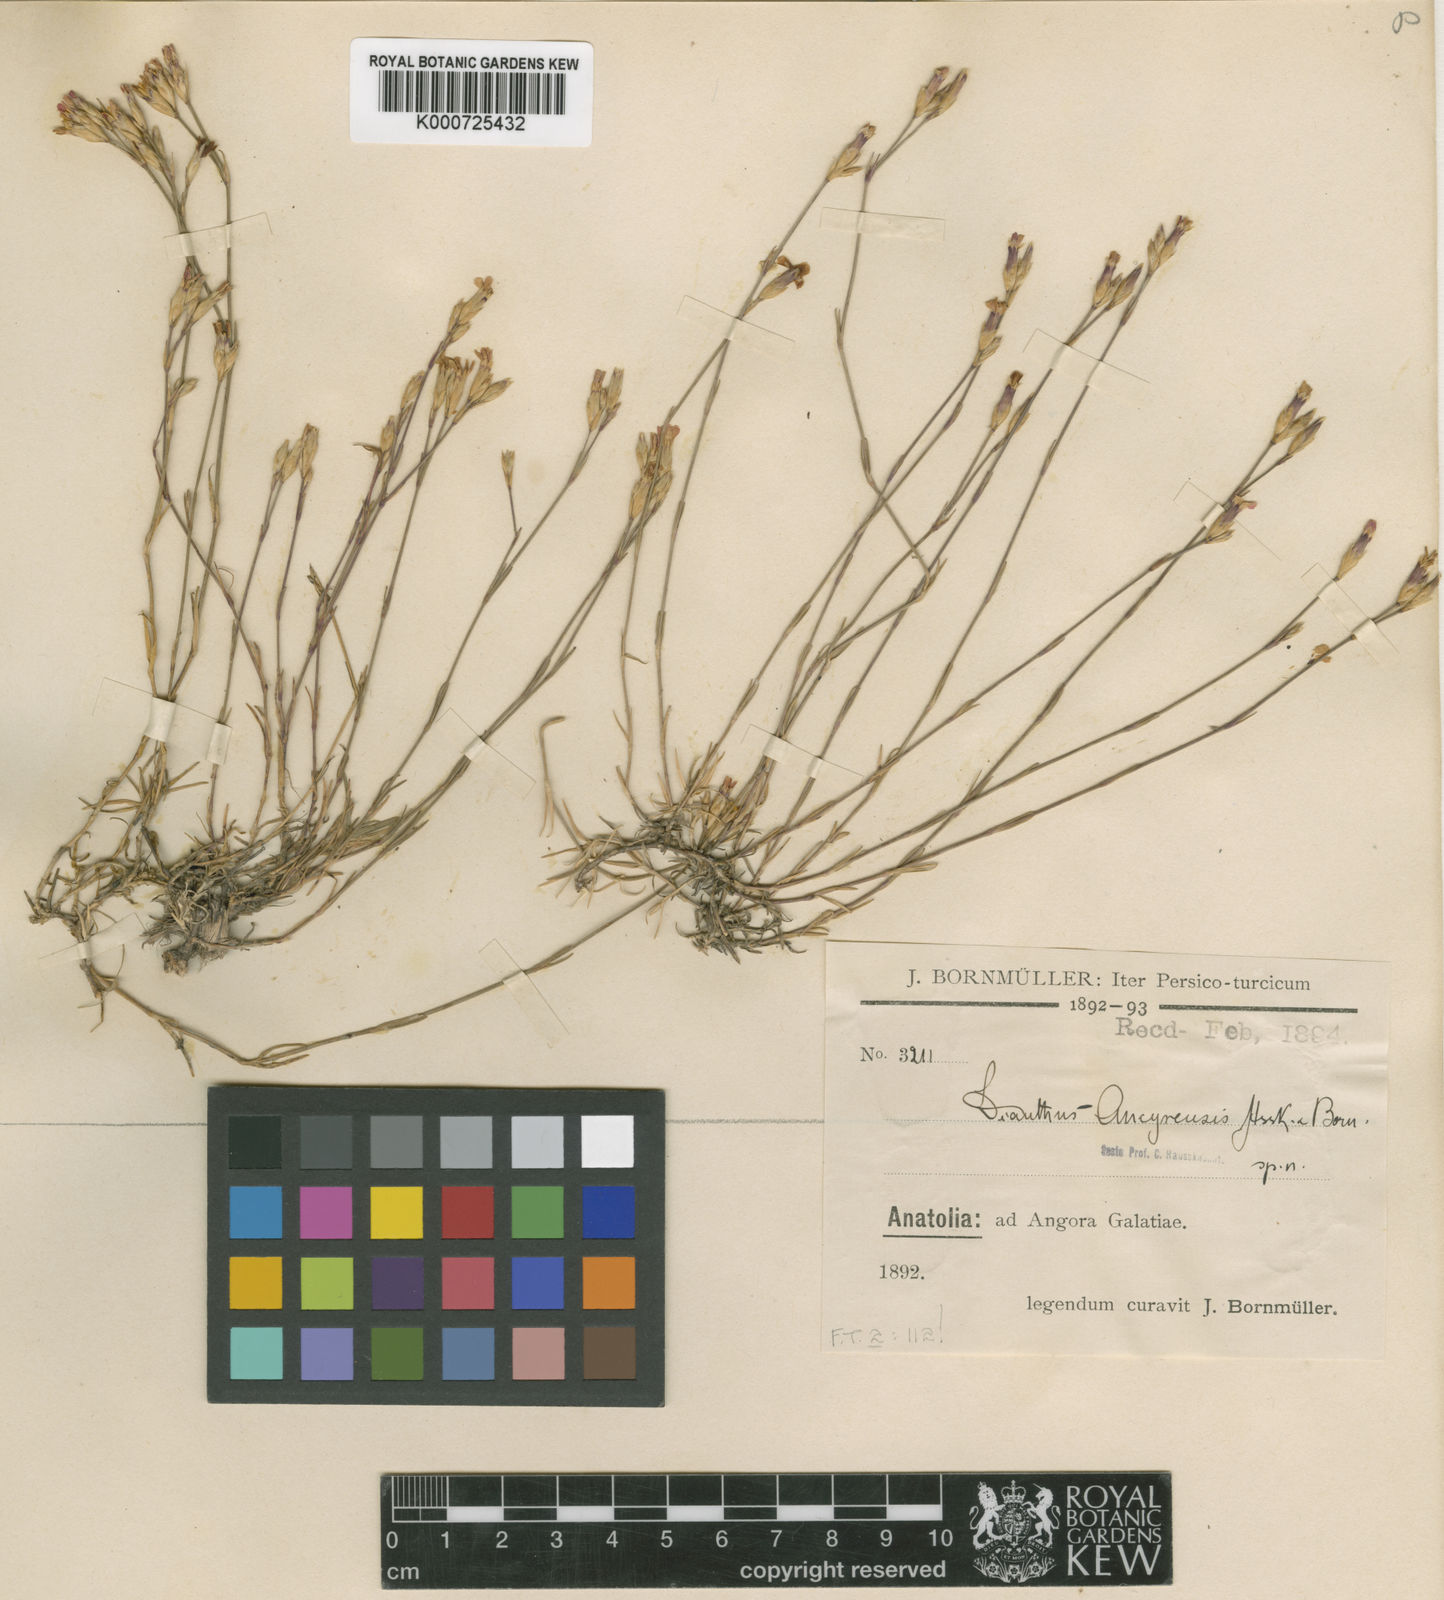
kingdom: Plantae
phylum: Tracheophyta
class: Magnoliopsida
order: Caryophyllales
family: Caryophyllaceae
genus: Dianthus
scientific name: Dianthus ancyrensis
